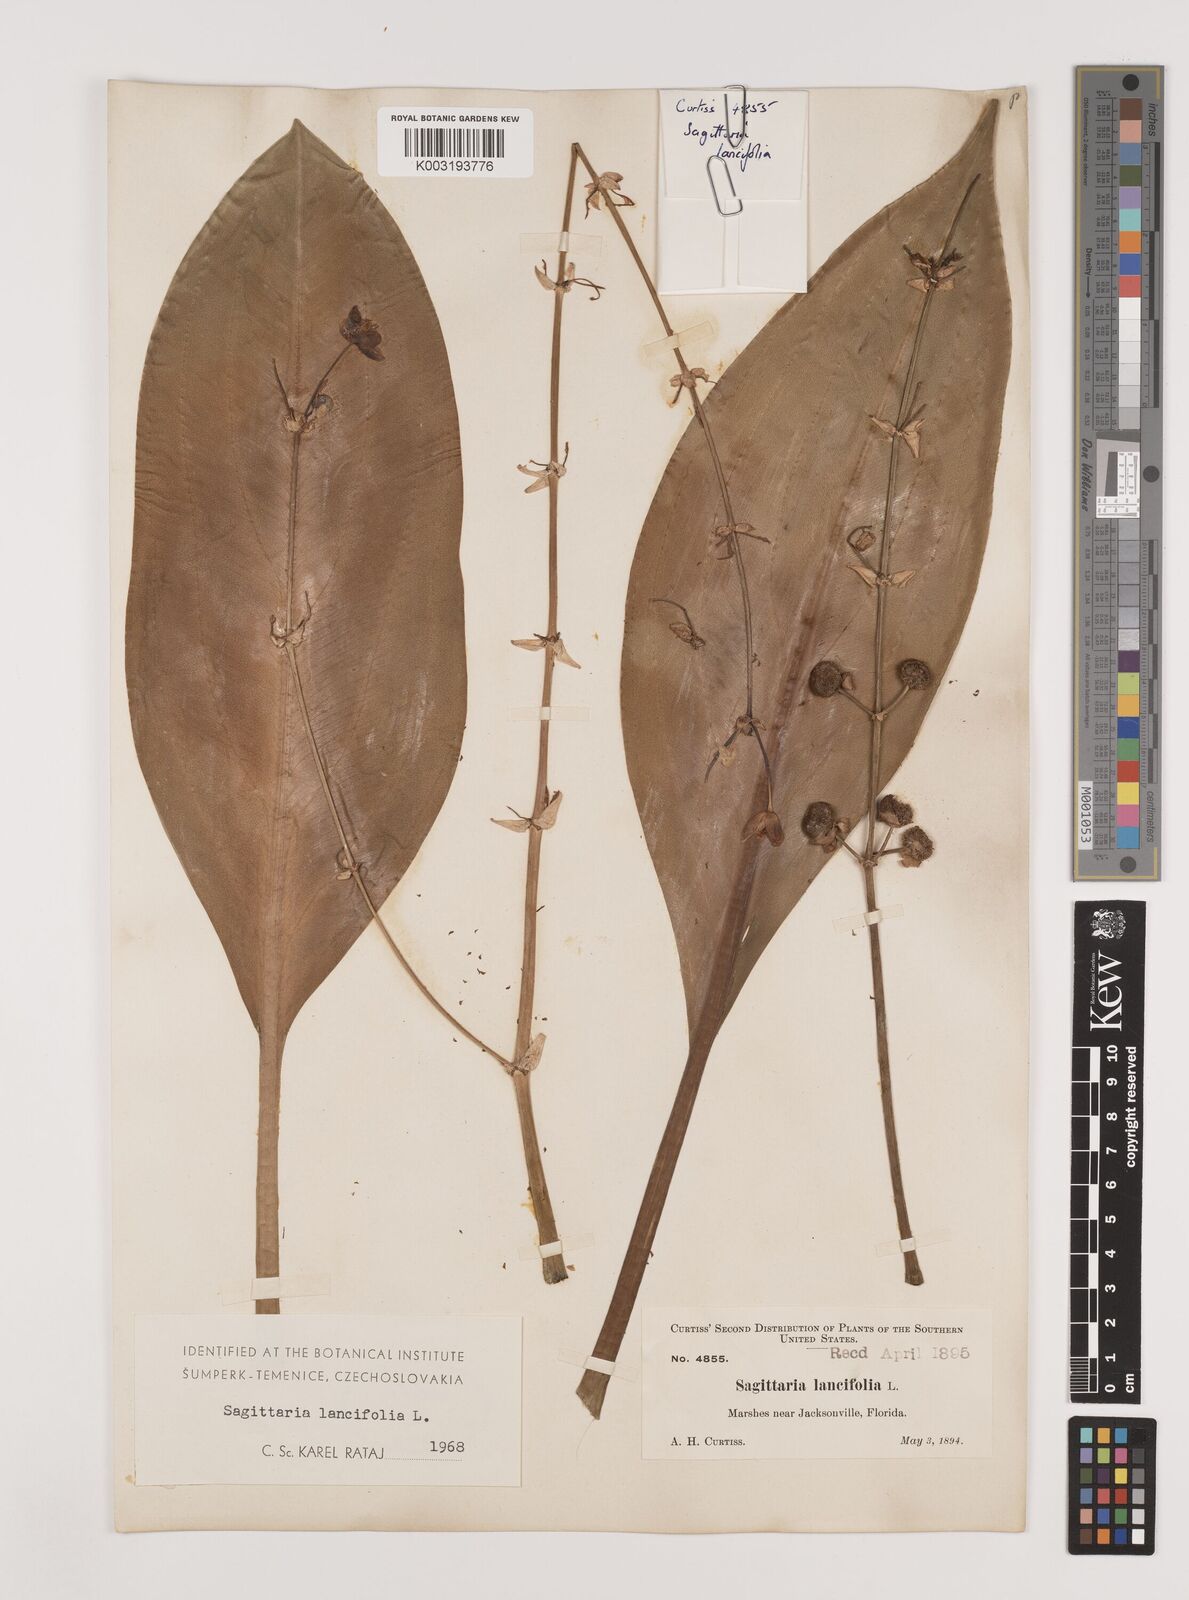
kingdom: Plantae
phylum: Tracheophyta
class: Liliopsida
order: Alismatales
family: Alismataceae
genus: Sagittaria
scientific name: Sagittaria lancifolia
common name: Lance-leaf arrowhead
